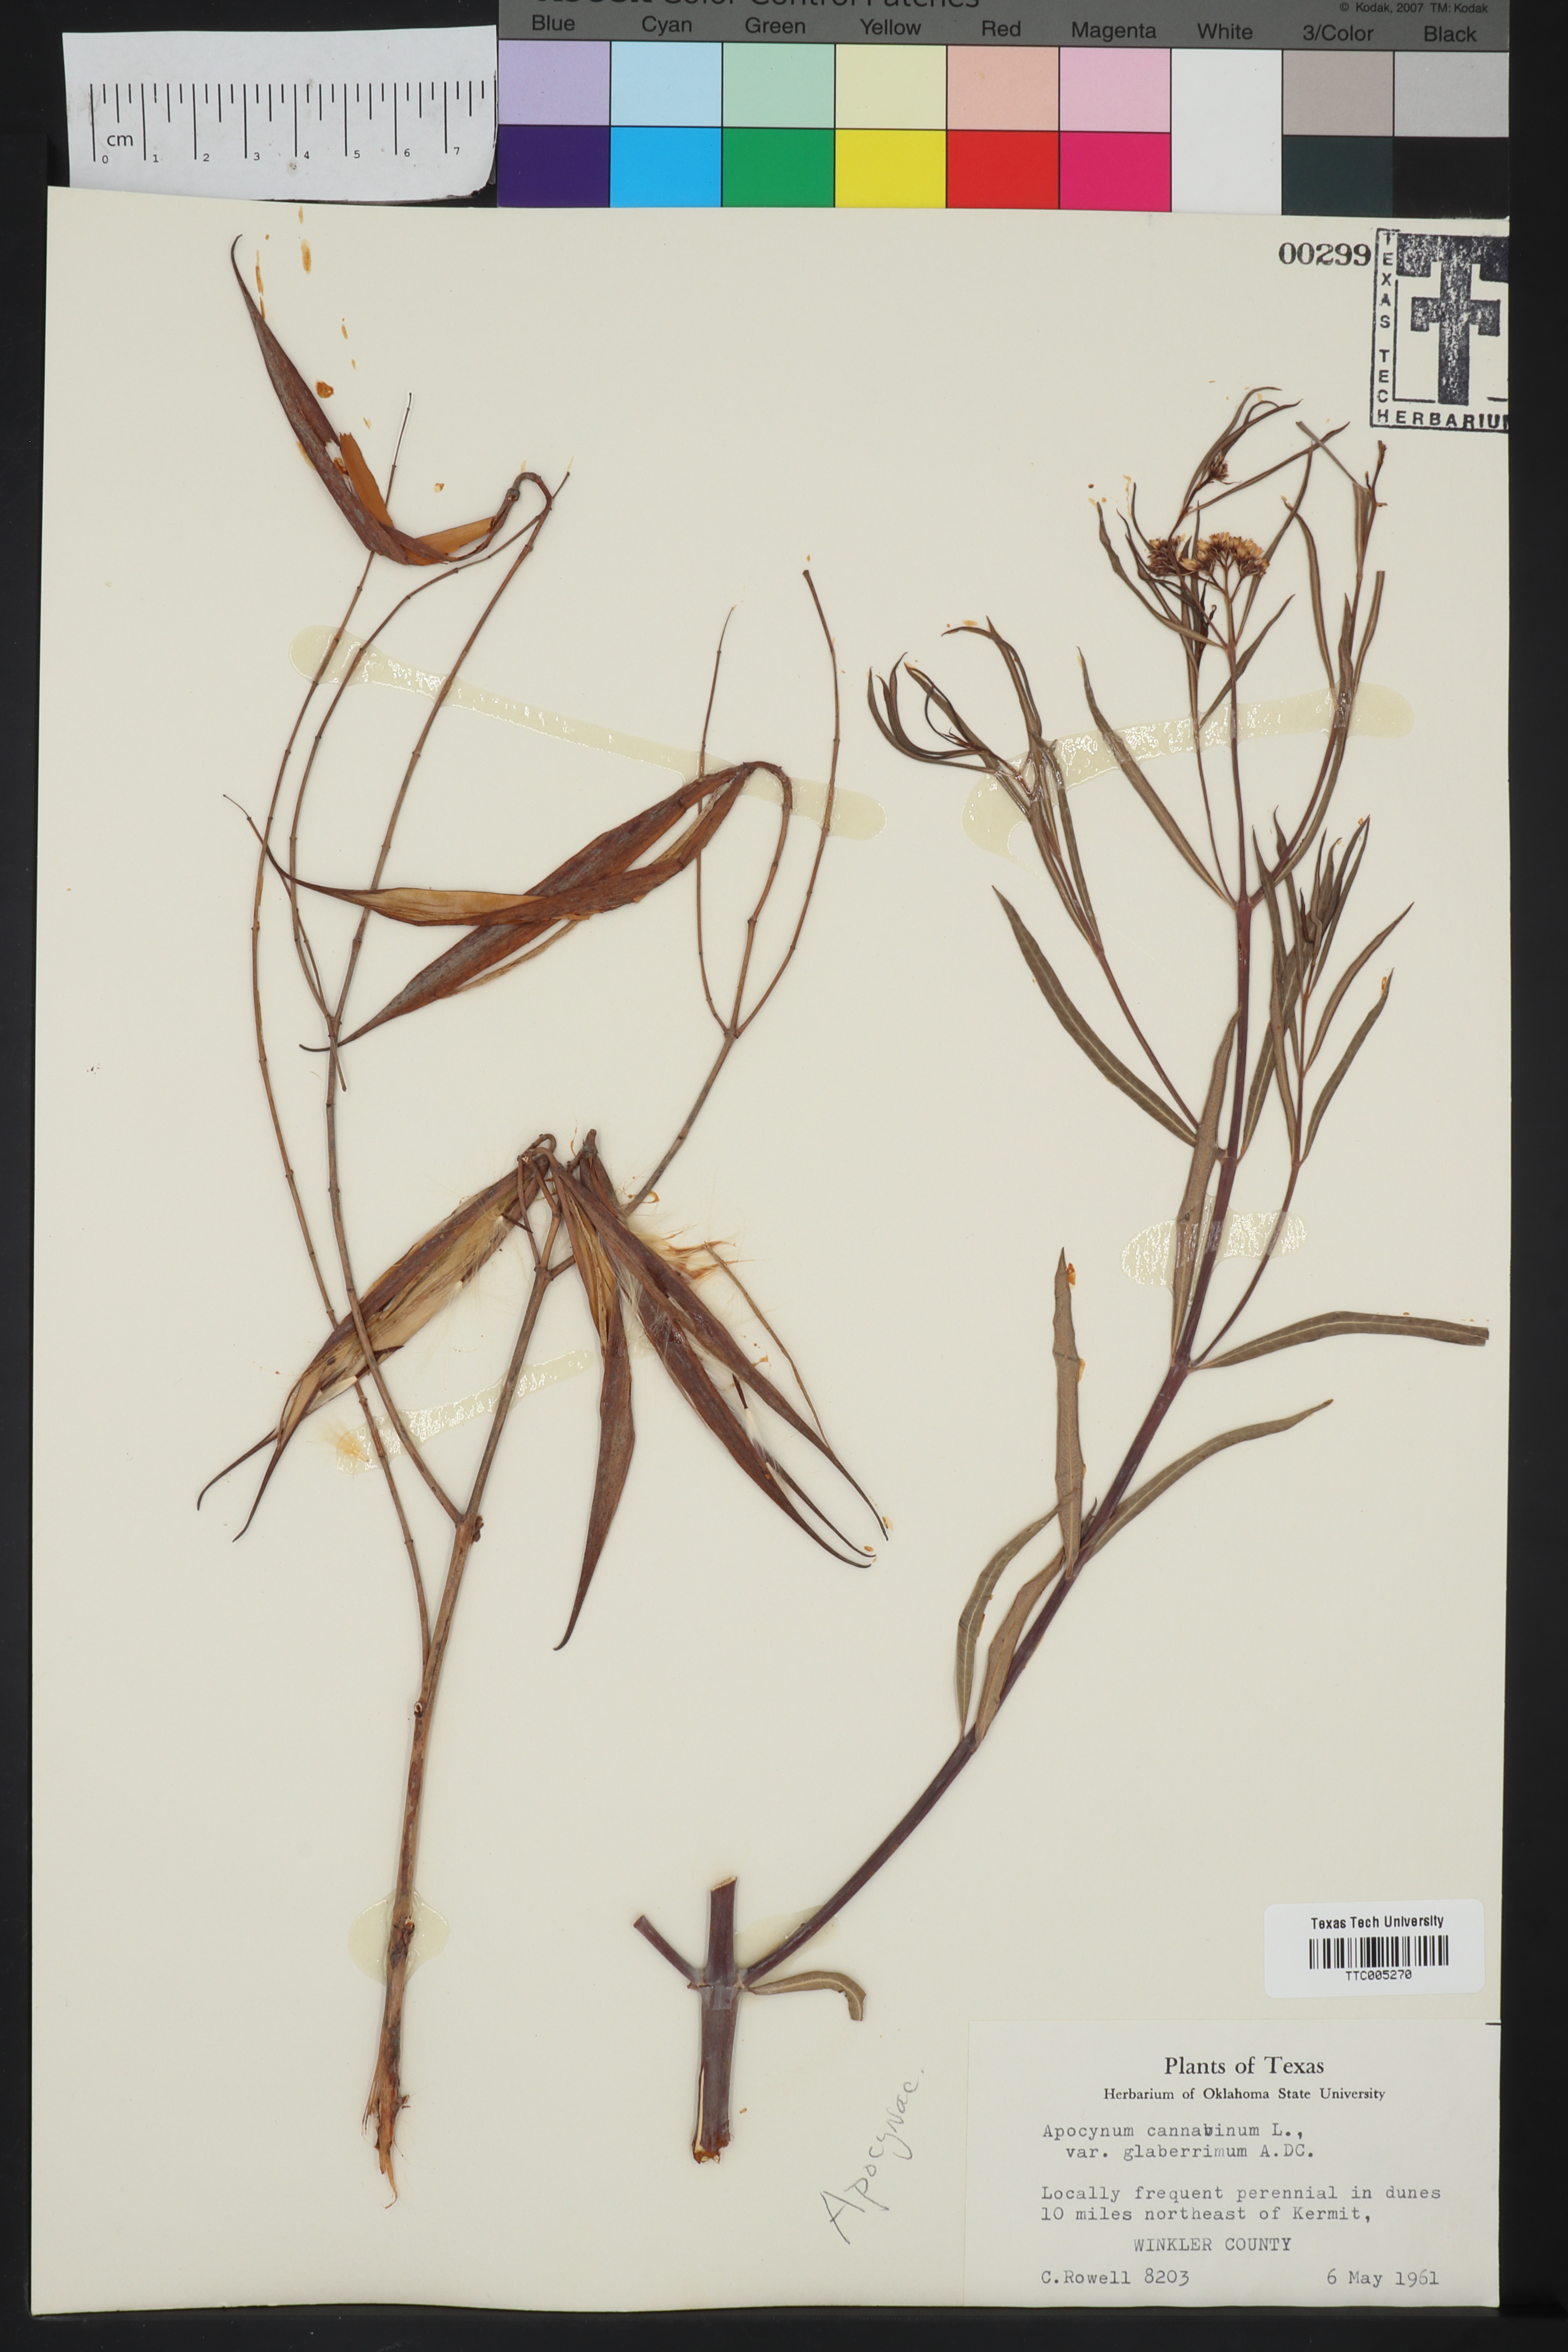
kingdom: Plantae
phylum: Tracheophyta
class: Magnoliopsida
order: Gentianales
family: Apocynaceae
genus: Apocynum
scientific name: Apocynum cannabinum
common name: Hemp dogbane
